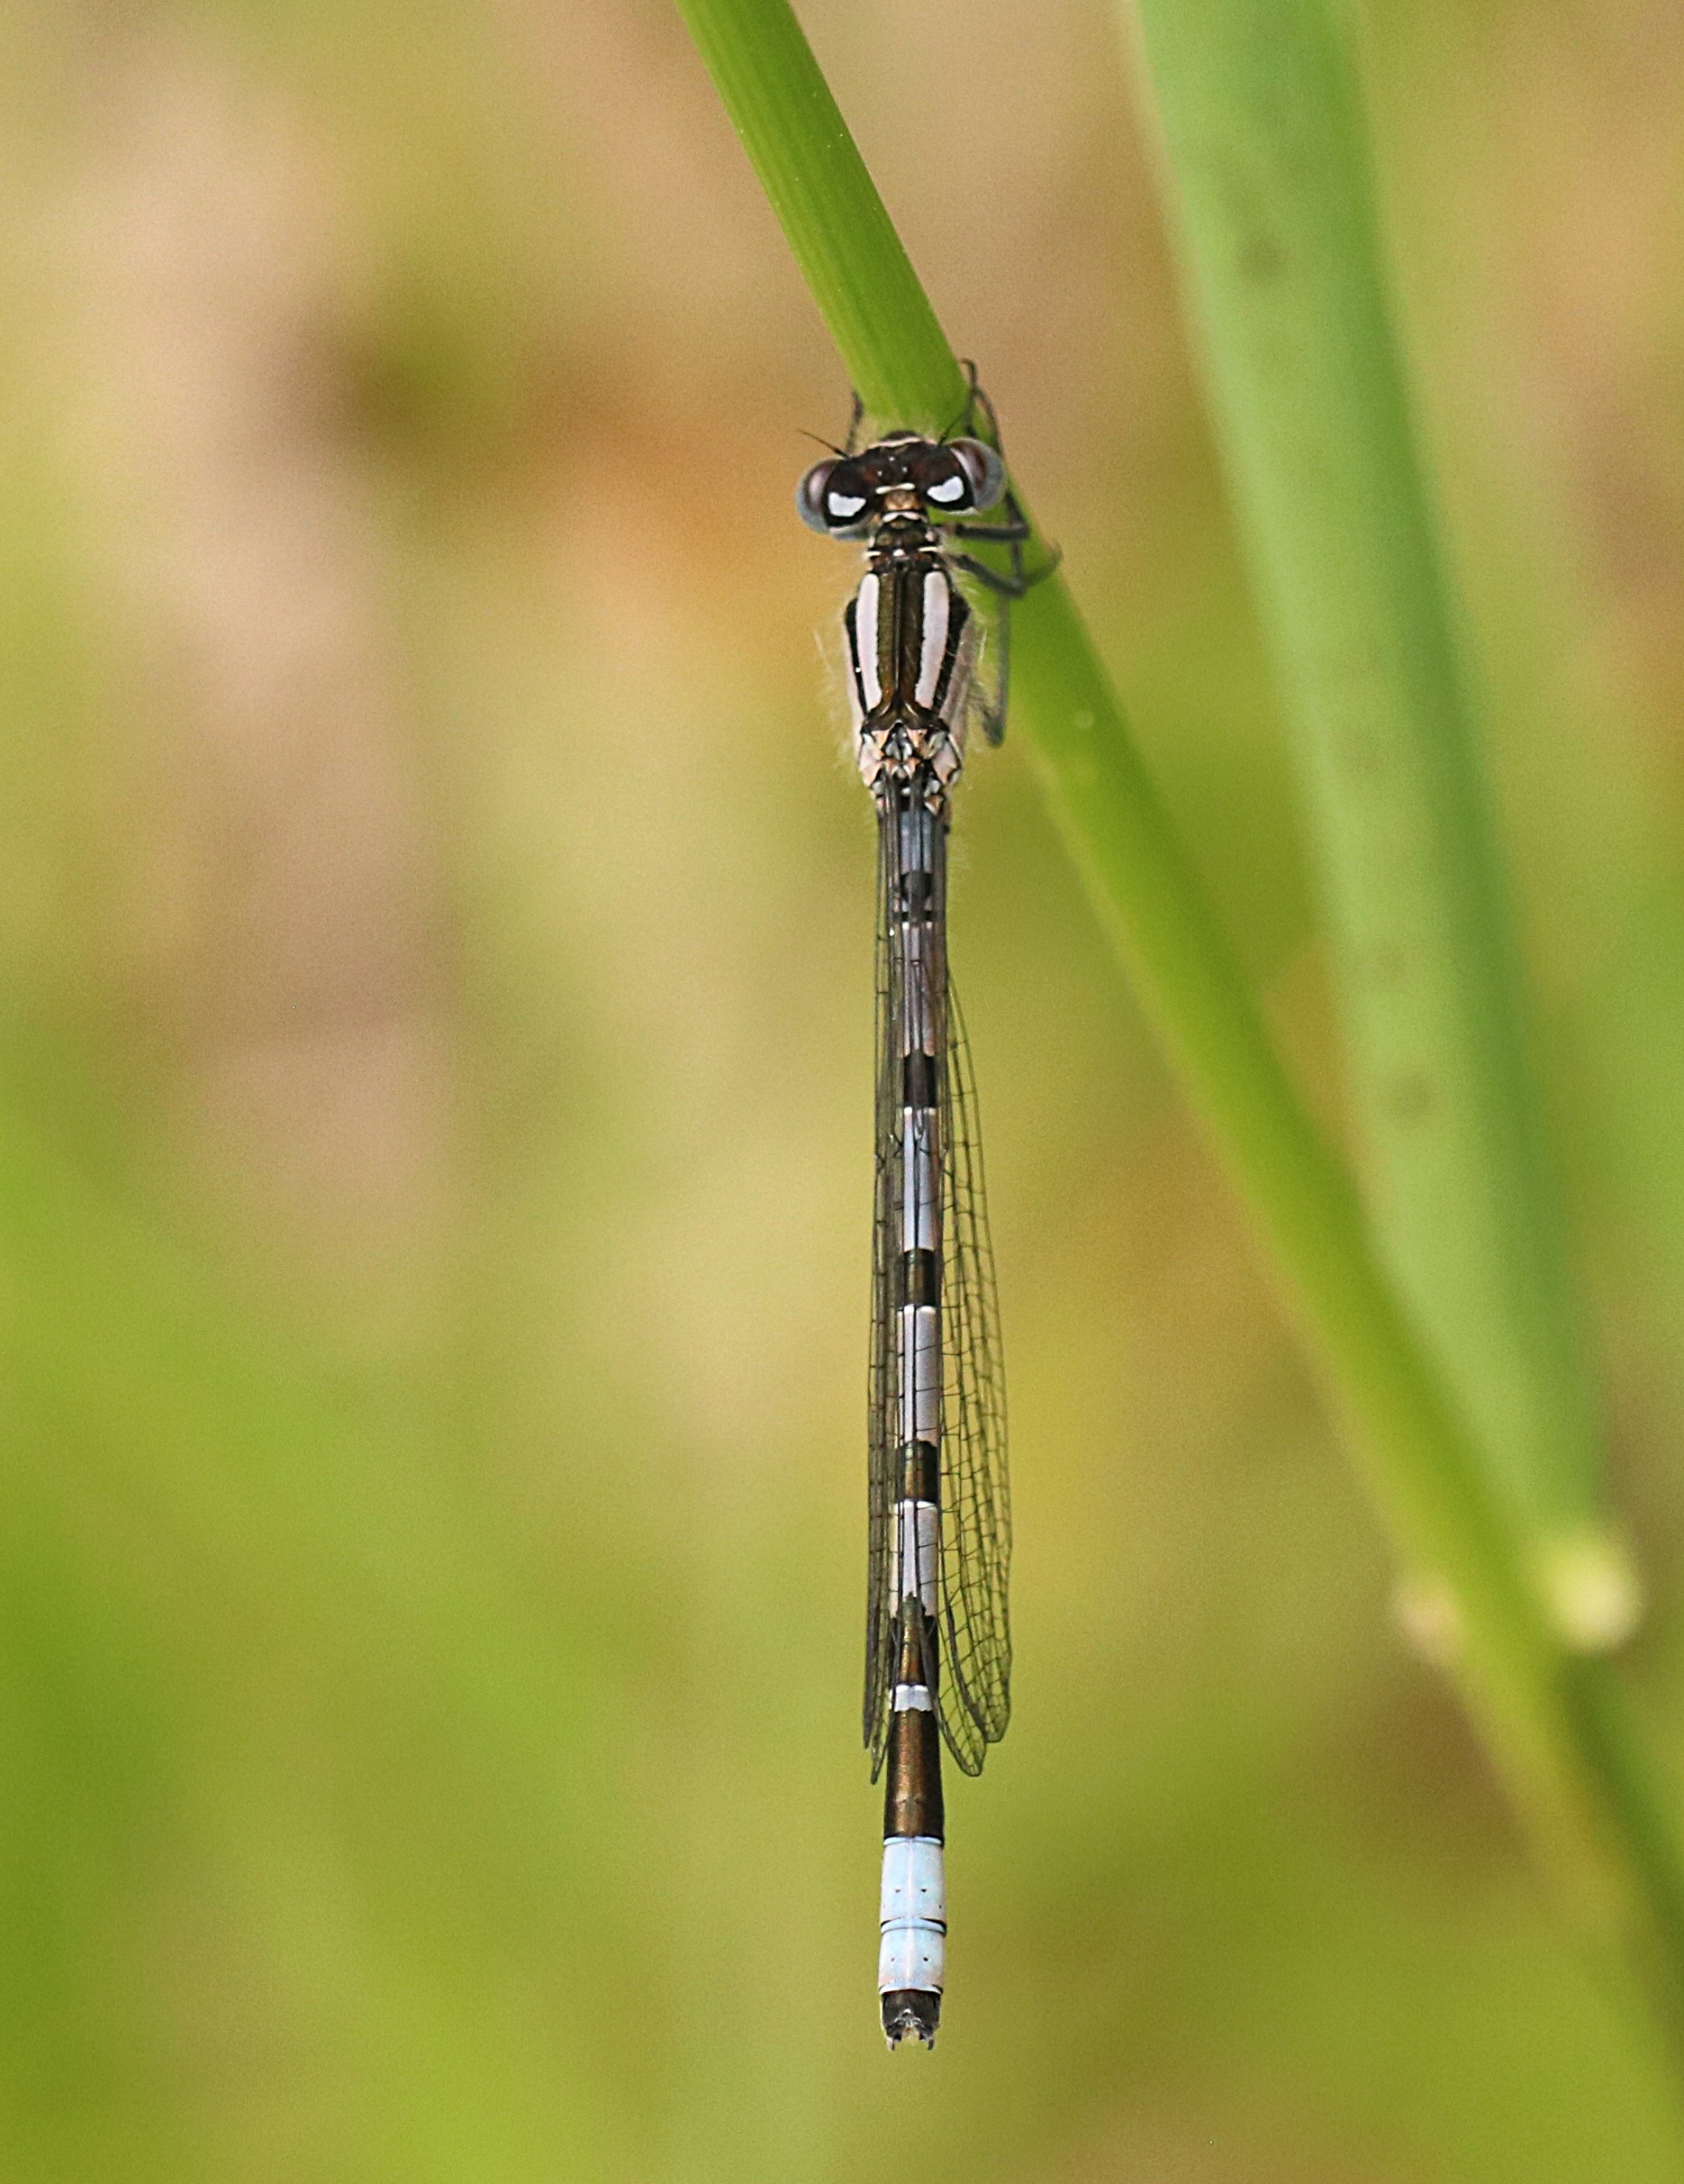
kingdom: Animalia
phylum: Arthropoda
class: Insecta
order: Odonata
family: Coenagrionidae
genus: Enallagma
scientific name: Enallagma cyathigerum
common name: Almindelig vandnymfe
